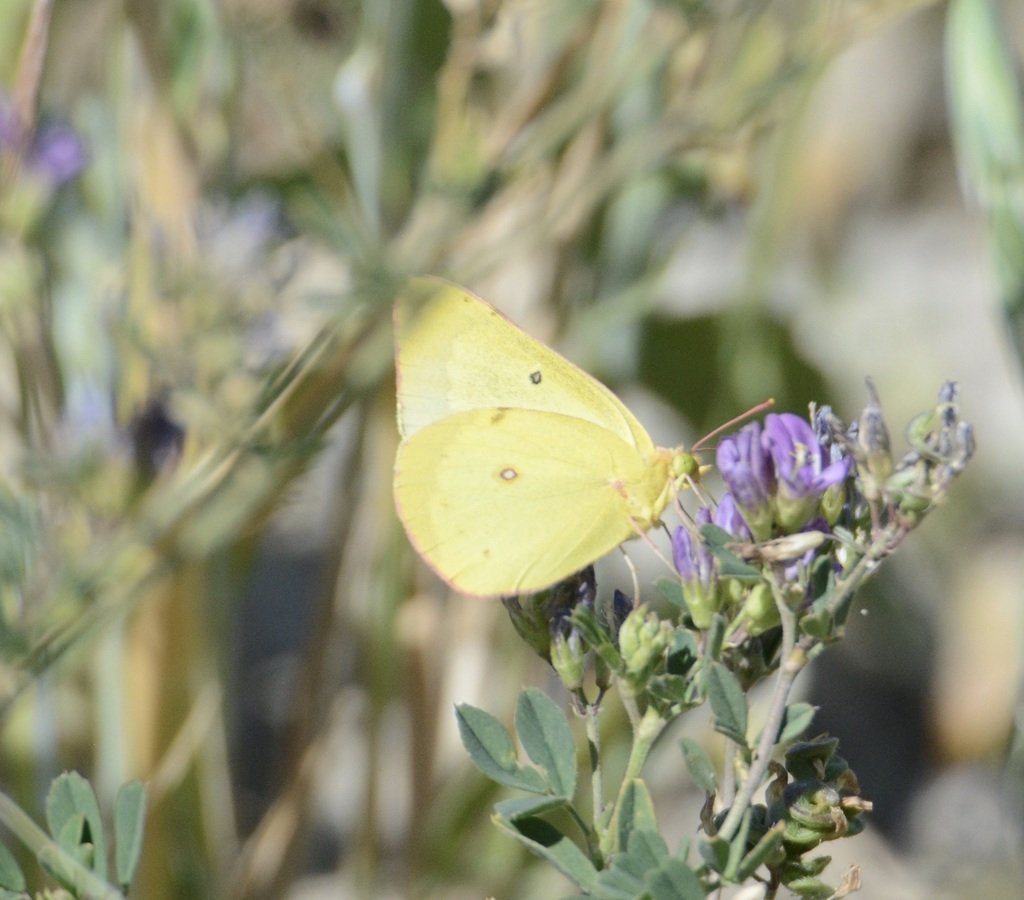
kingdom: Animalia
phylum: Arthropoda
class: Insecta
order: Lepidoptera
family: Pieridae
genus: Colias
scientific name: Colias philodice
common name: Clouded Sulphur
